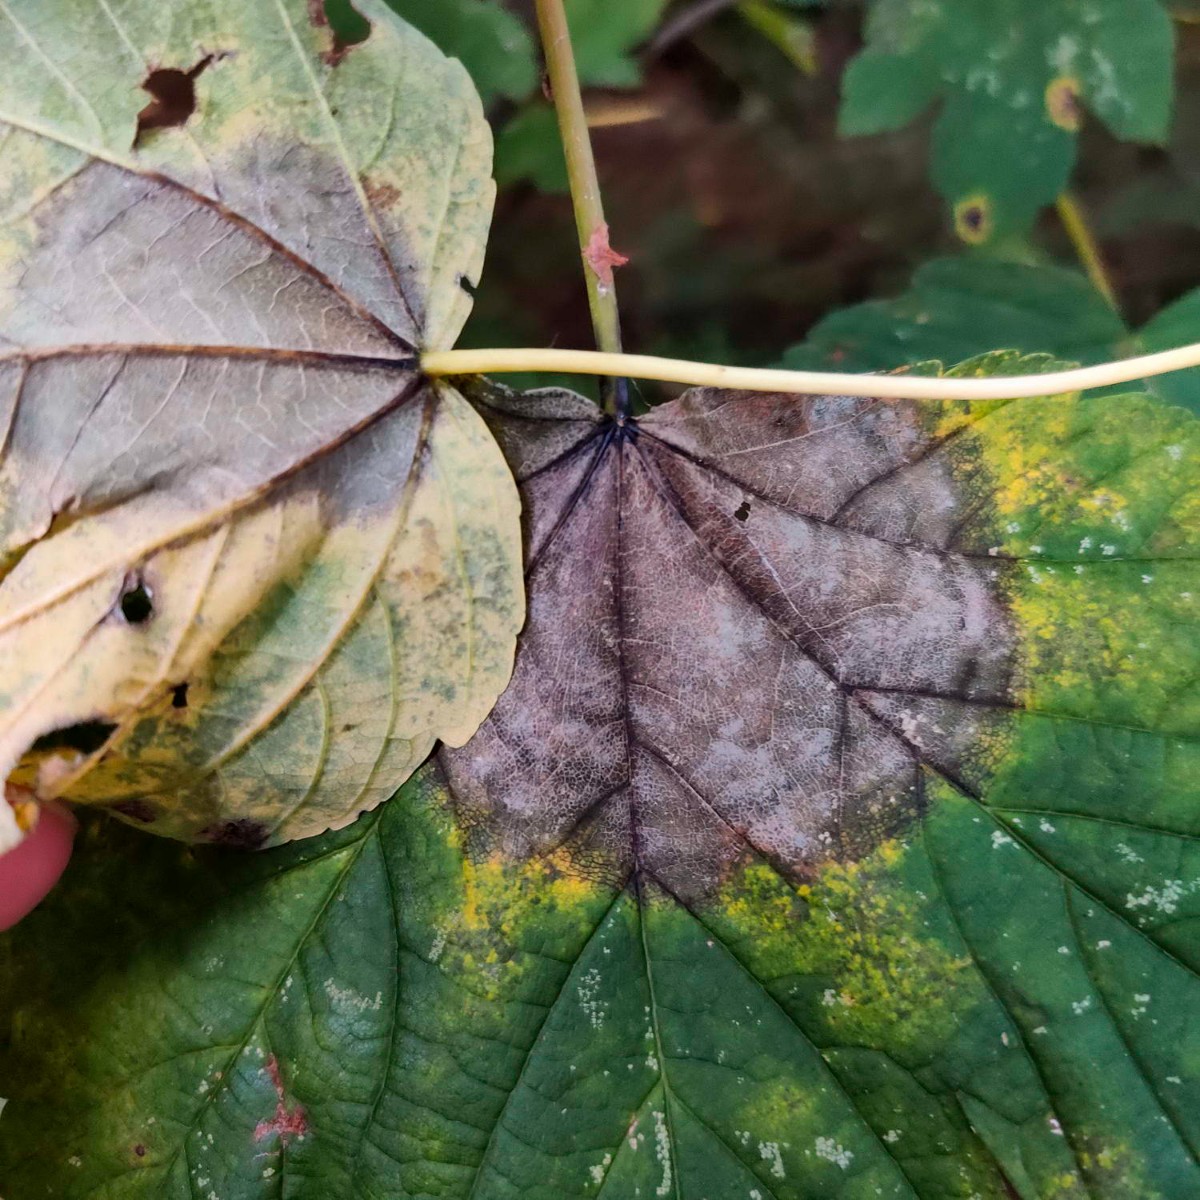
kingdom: Fungi
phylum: Ascomycota
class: Sordariomycetes
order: Diaporthales
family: Gnomoniaceae
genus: Pleuroceras
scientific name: Pleuroceras pseudoplatani
